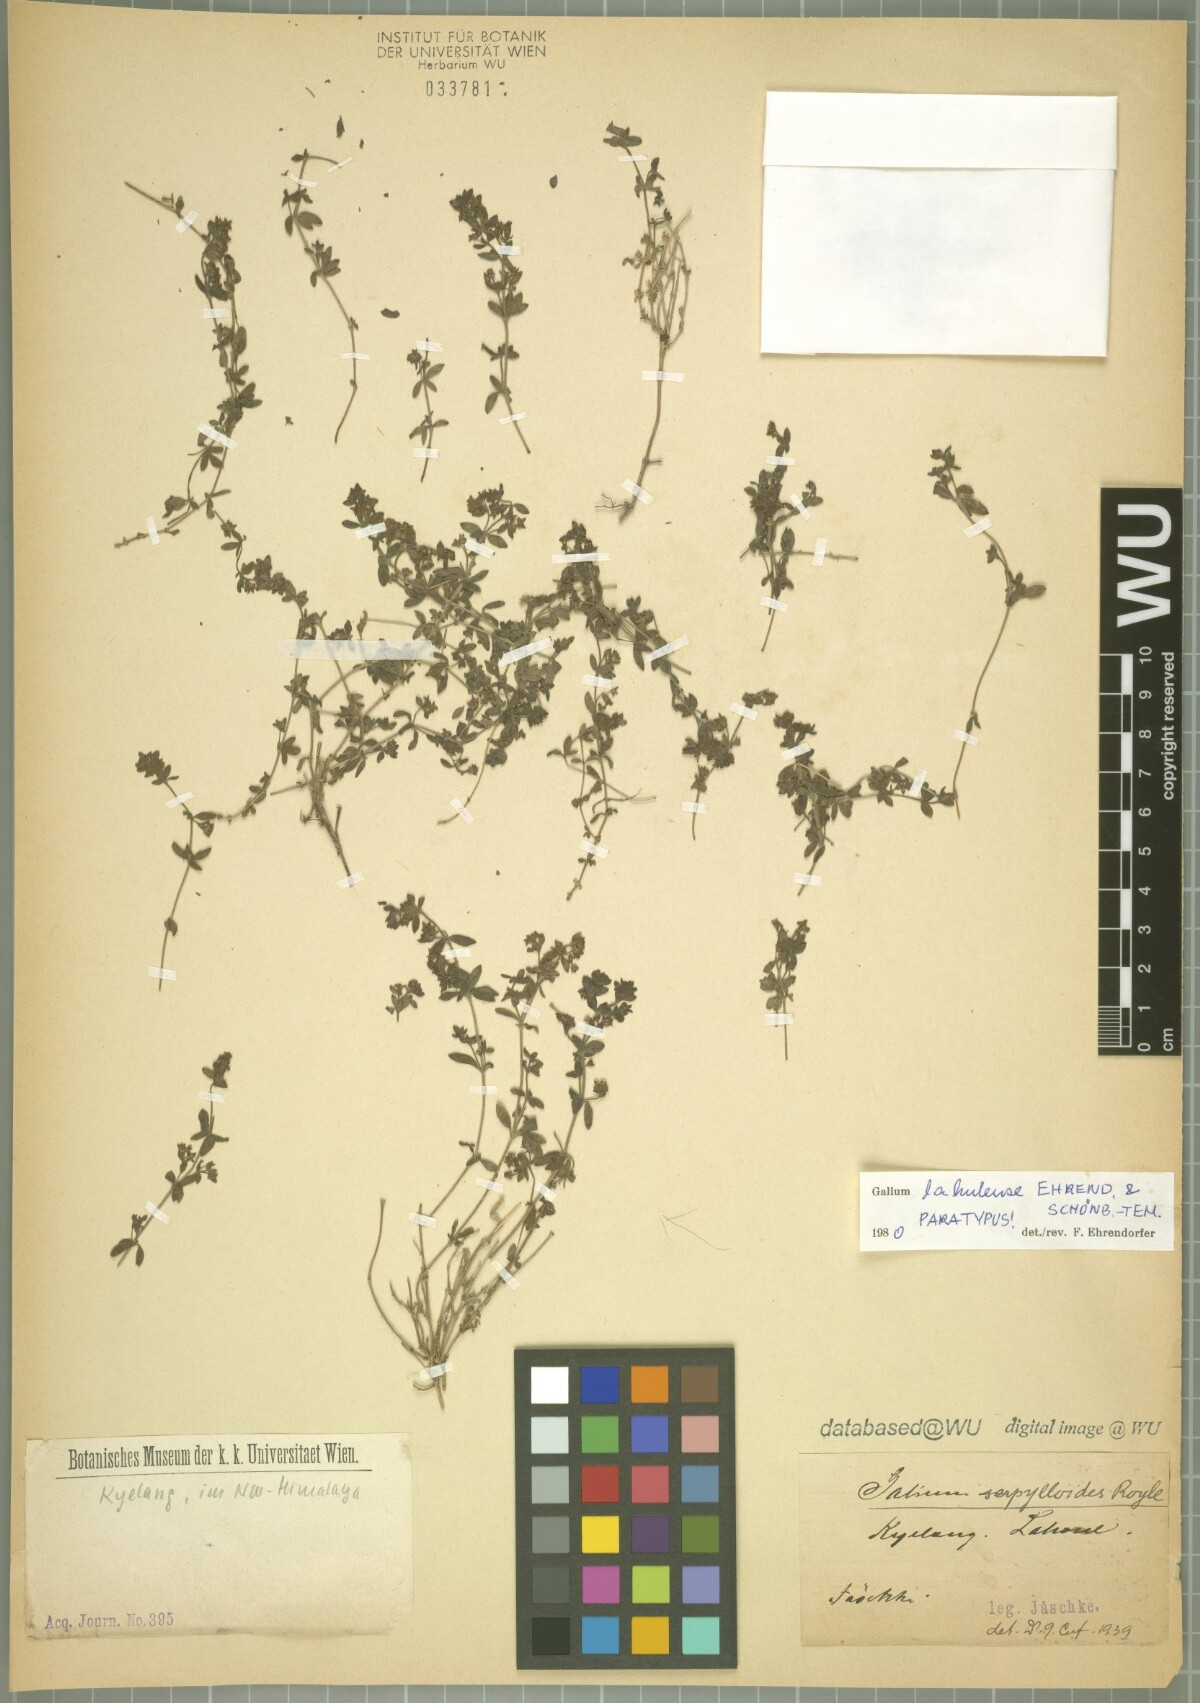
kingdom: Plantae
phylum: Tracheophyta
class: Magnoliopsida
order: Gentianales
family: Rubiaceae
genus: Galium
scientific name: Galium lahulense
